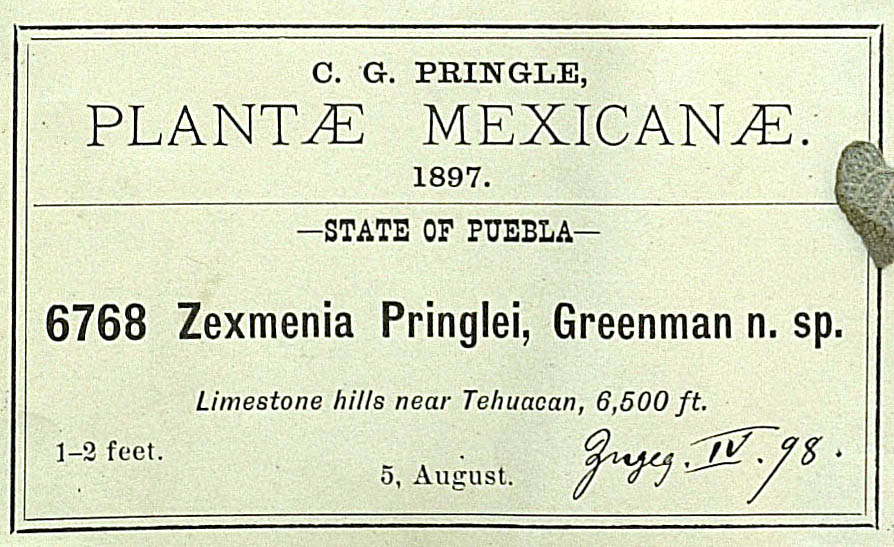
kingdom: Plantae
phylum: Tracheophyta
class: Magnoliopsida
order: Asterales
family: Asteraceae
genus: Jefea
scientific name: Jefea pringlei
